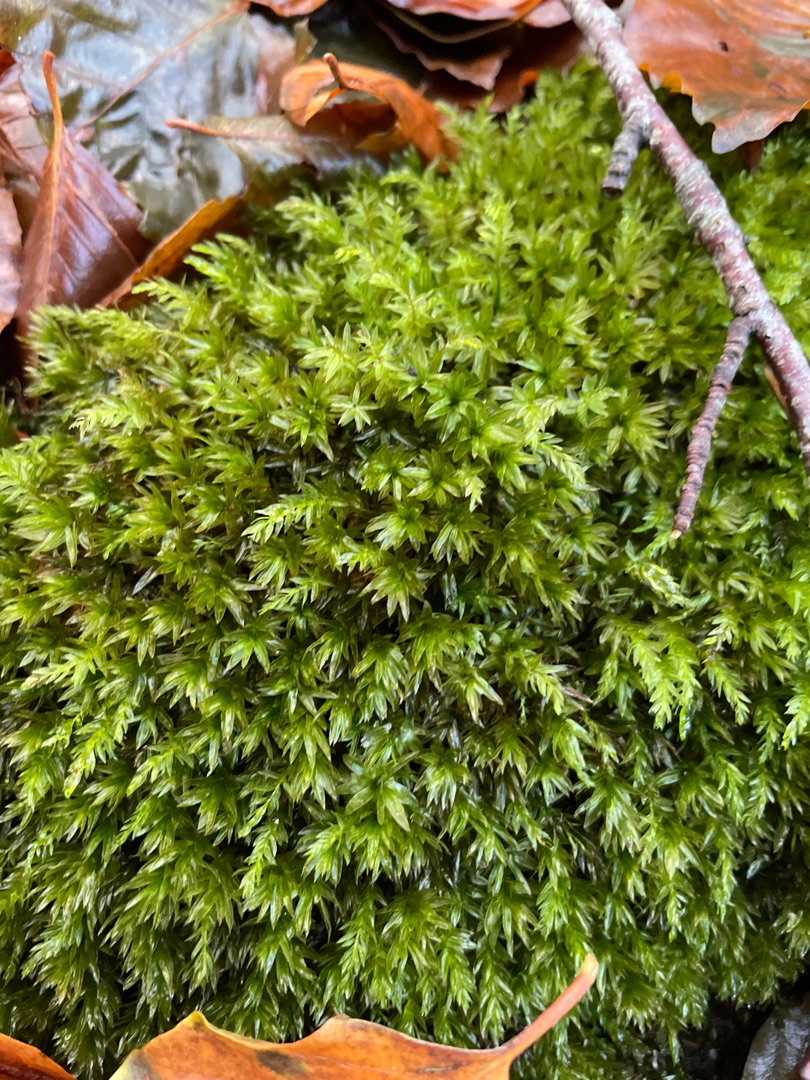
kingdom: Plantae
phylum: Bryophyta
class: Bryopsida
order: Bryales
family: Mniaceae
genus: Mnium
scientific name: Mnium hornum
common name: Brunfiltet stjernemos
